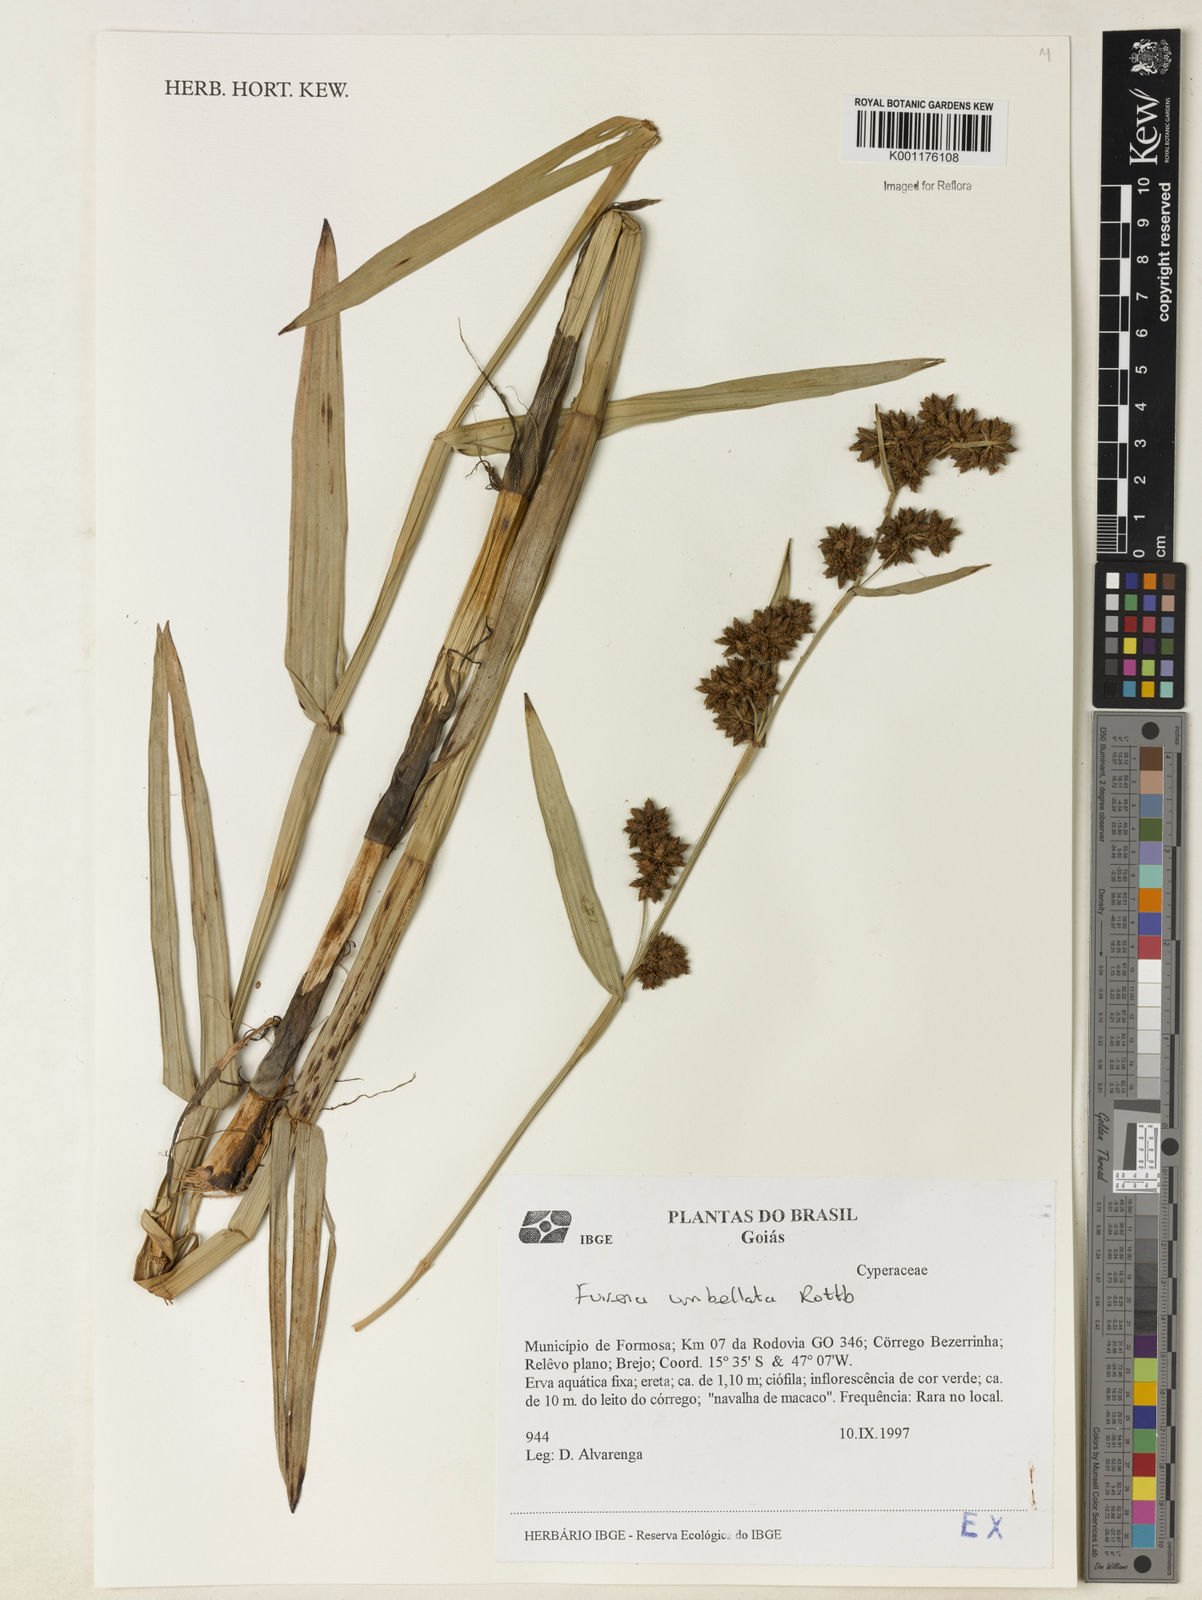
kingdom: Plantae
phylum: Tracheophyta
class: Liliopsida
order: Poales
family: Cyperaceae
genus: Fuirena
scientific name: Fuirena umbellata
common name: Yefen
